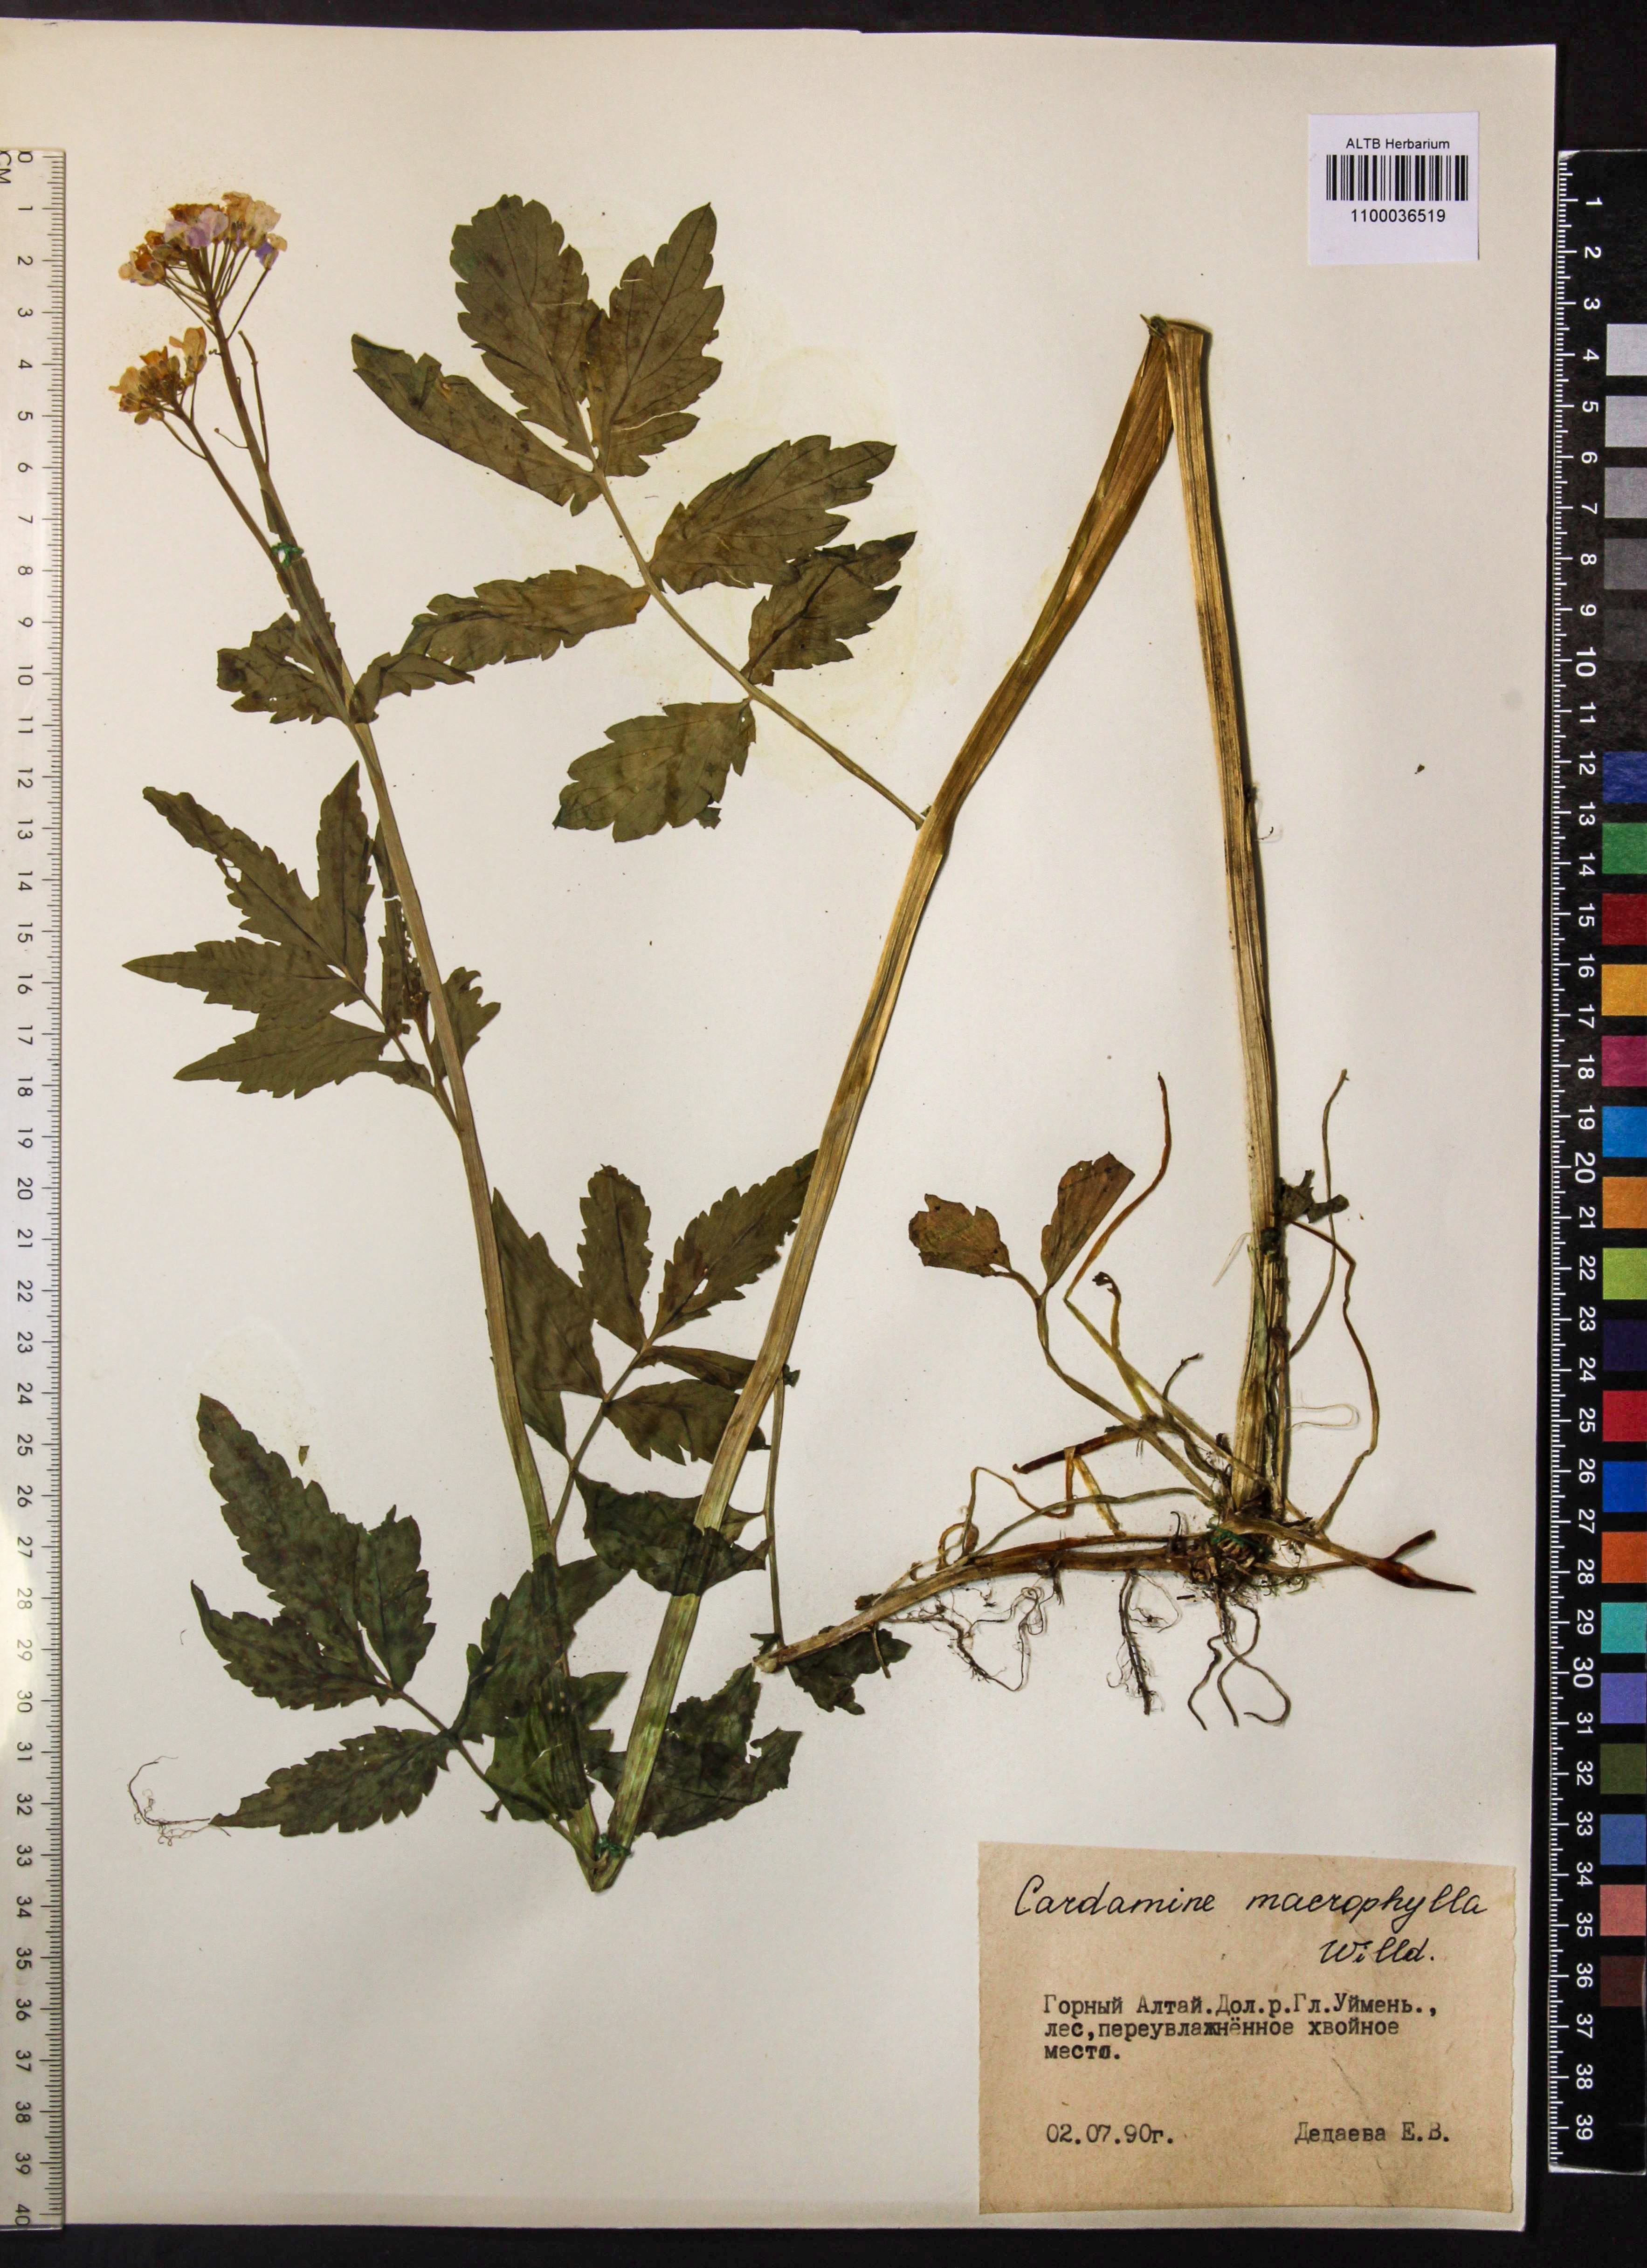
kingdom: Plantae
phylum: Tracheophyta
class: Magnoliopsida
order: Brassicales
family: Brassicaceae
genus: Cardamine
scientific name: Cardamine macrophylla
